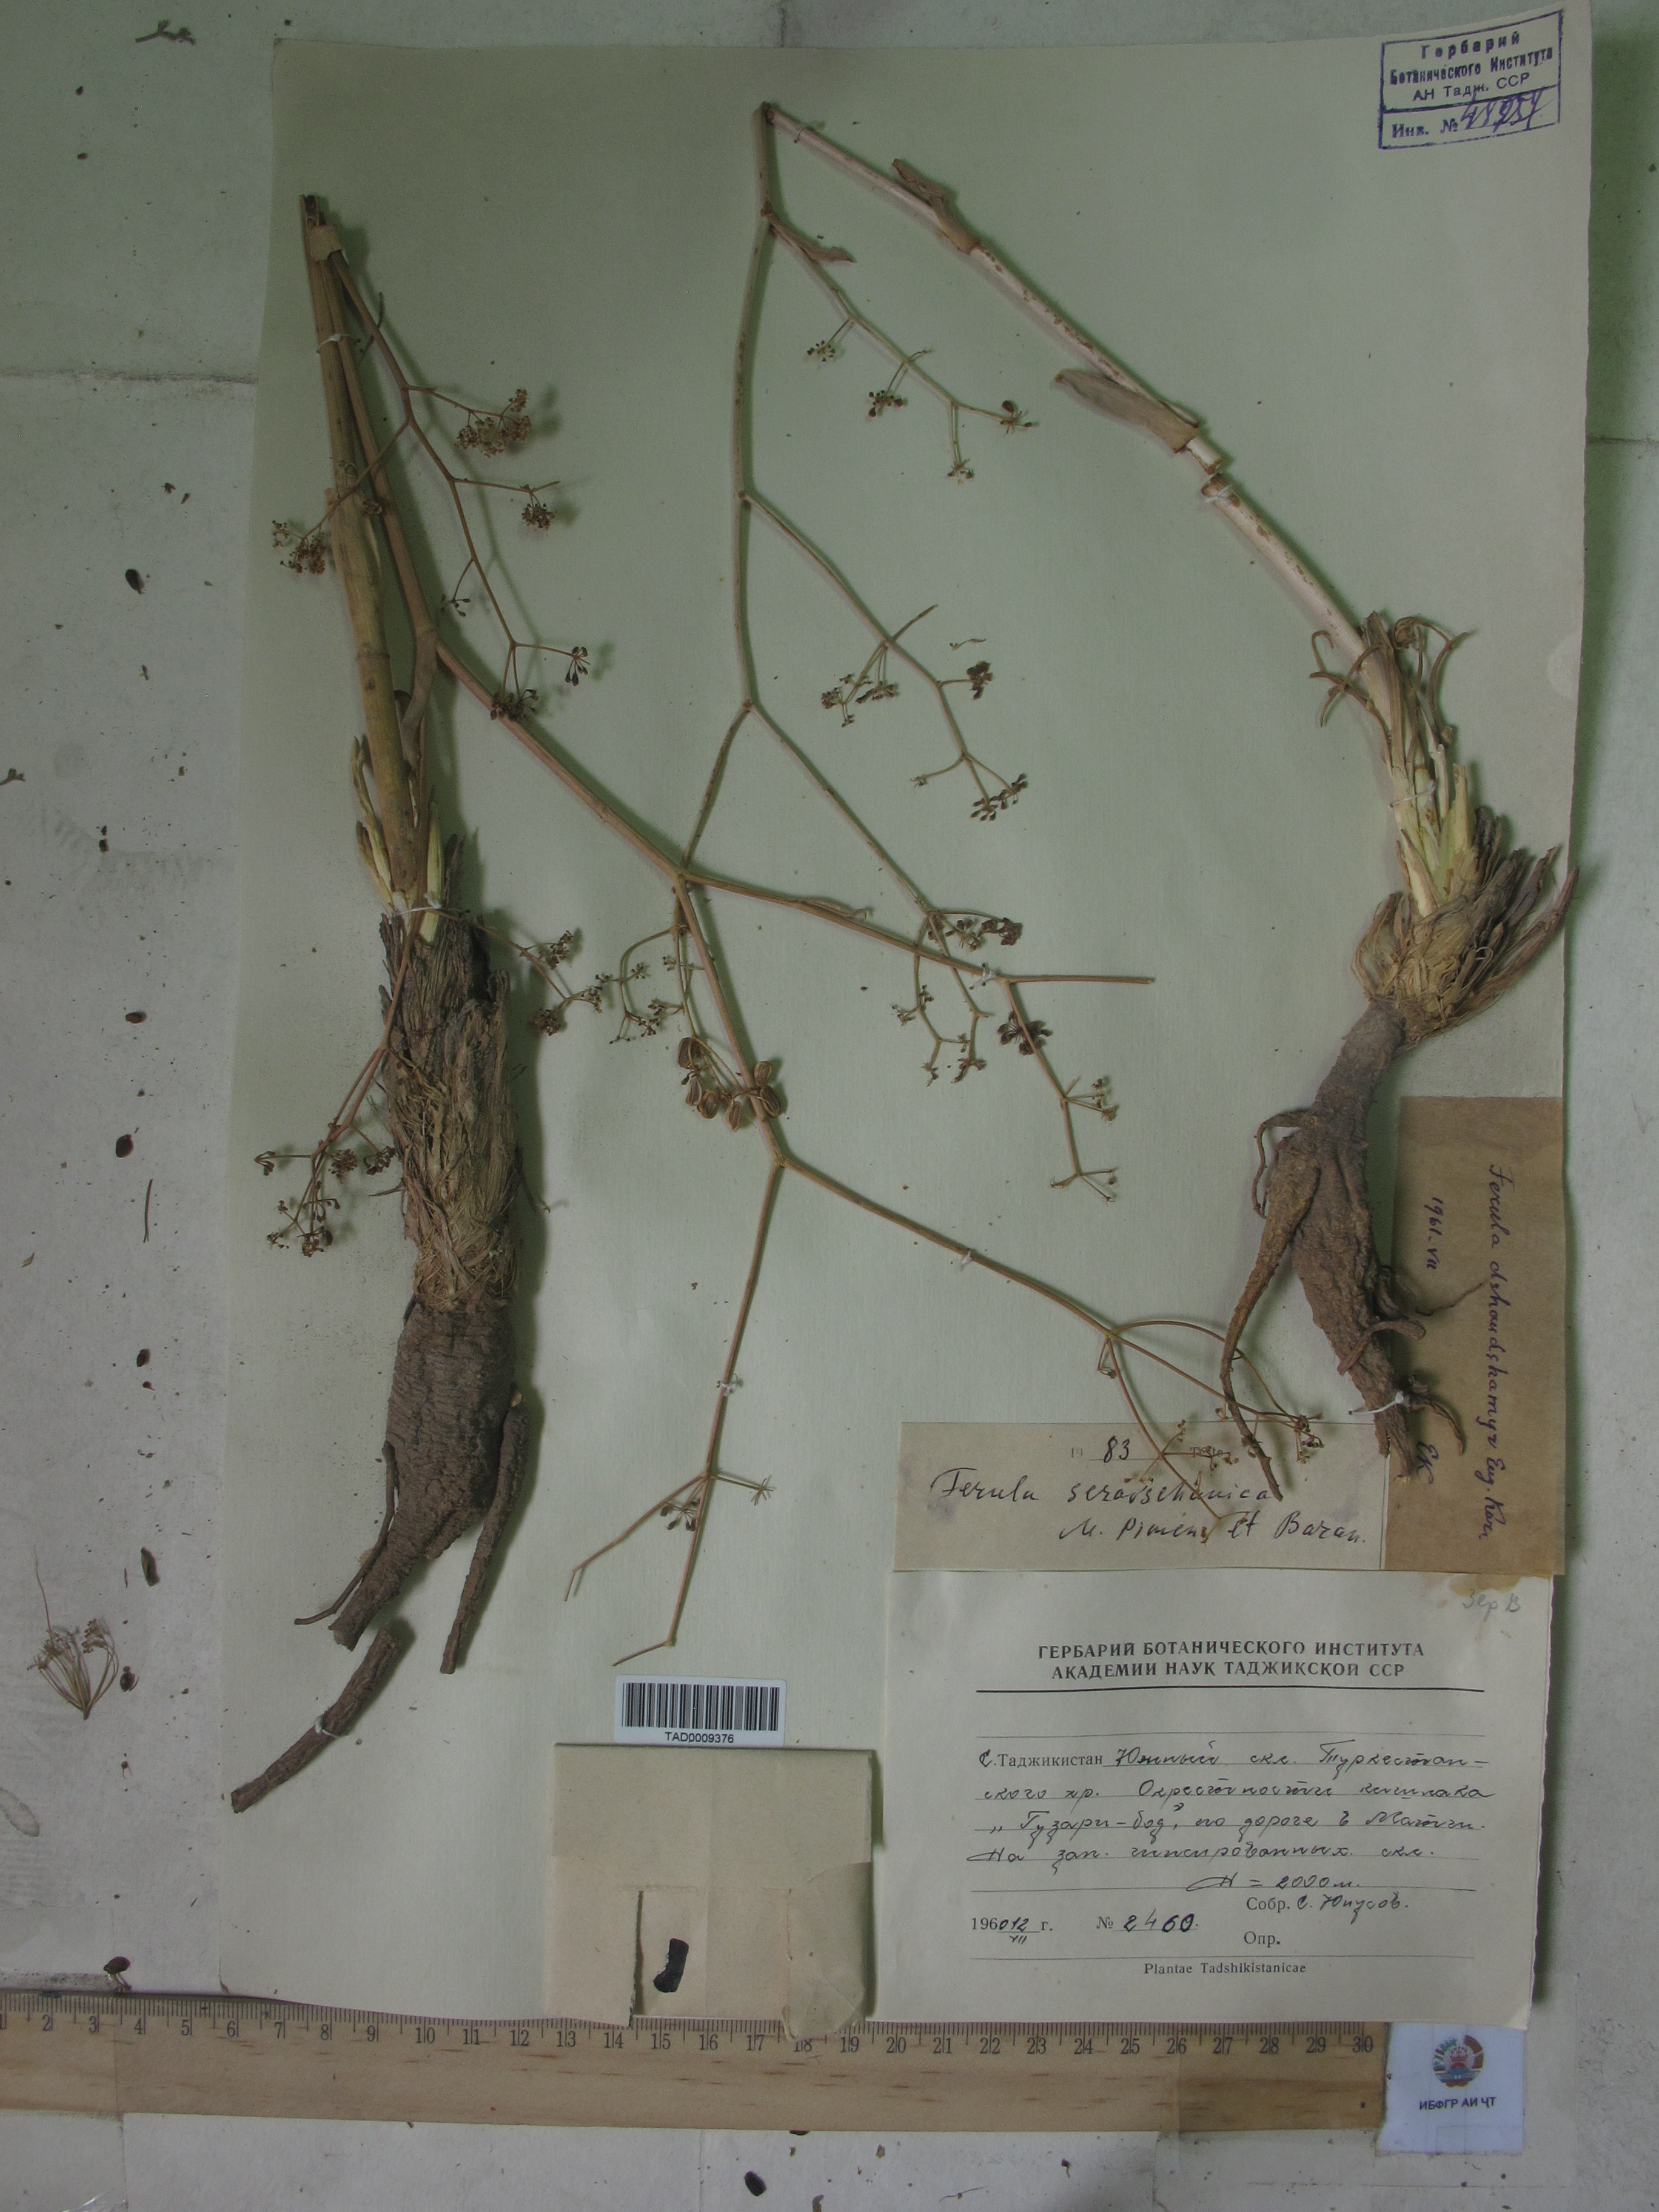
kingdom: Plantae
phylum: Tracheophyta
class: Magnoliopsida
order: Apiales
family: Apiaceae
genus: Ferula
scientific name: Ferula seravschanica
